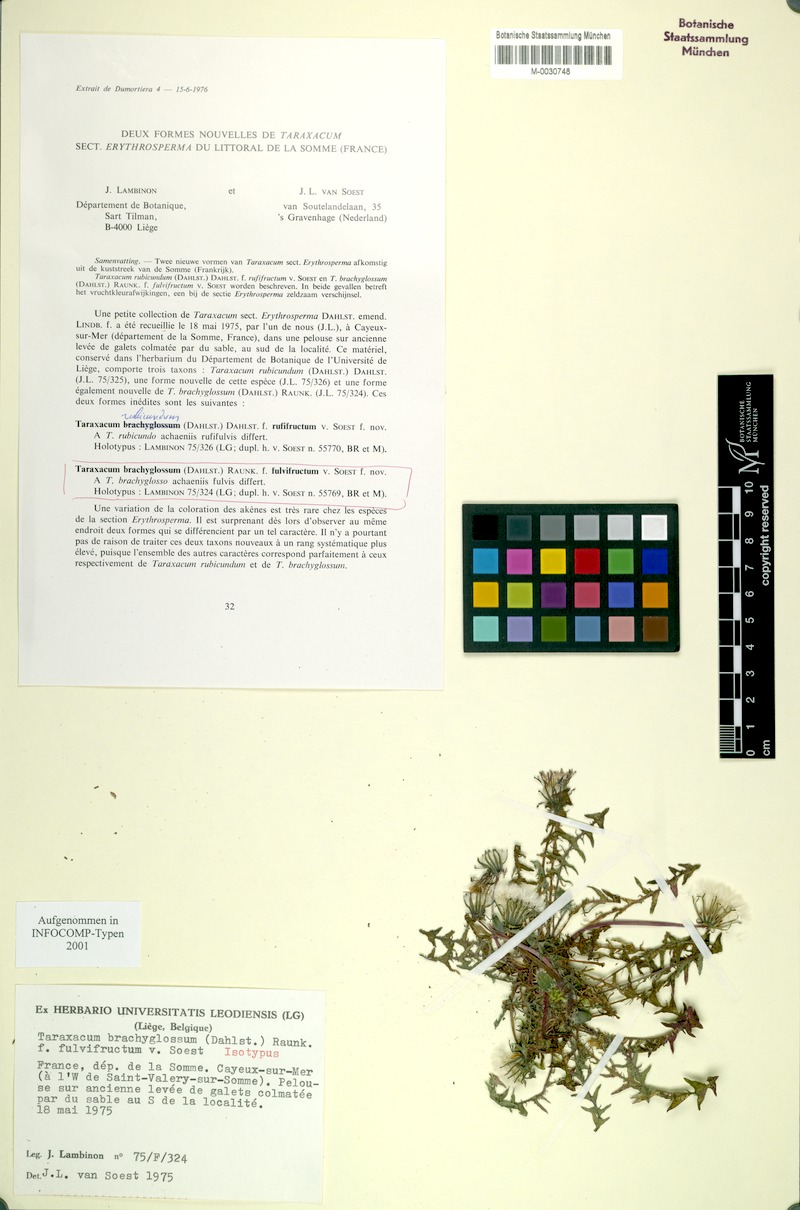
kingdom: Plantae
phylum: Tracheophyta
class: Magnoliopsida
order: Asterales
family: Asteraceae
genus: Taraxacum
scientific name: Taraxacum brachyglossum
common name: Purple-bracted dandelion
